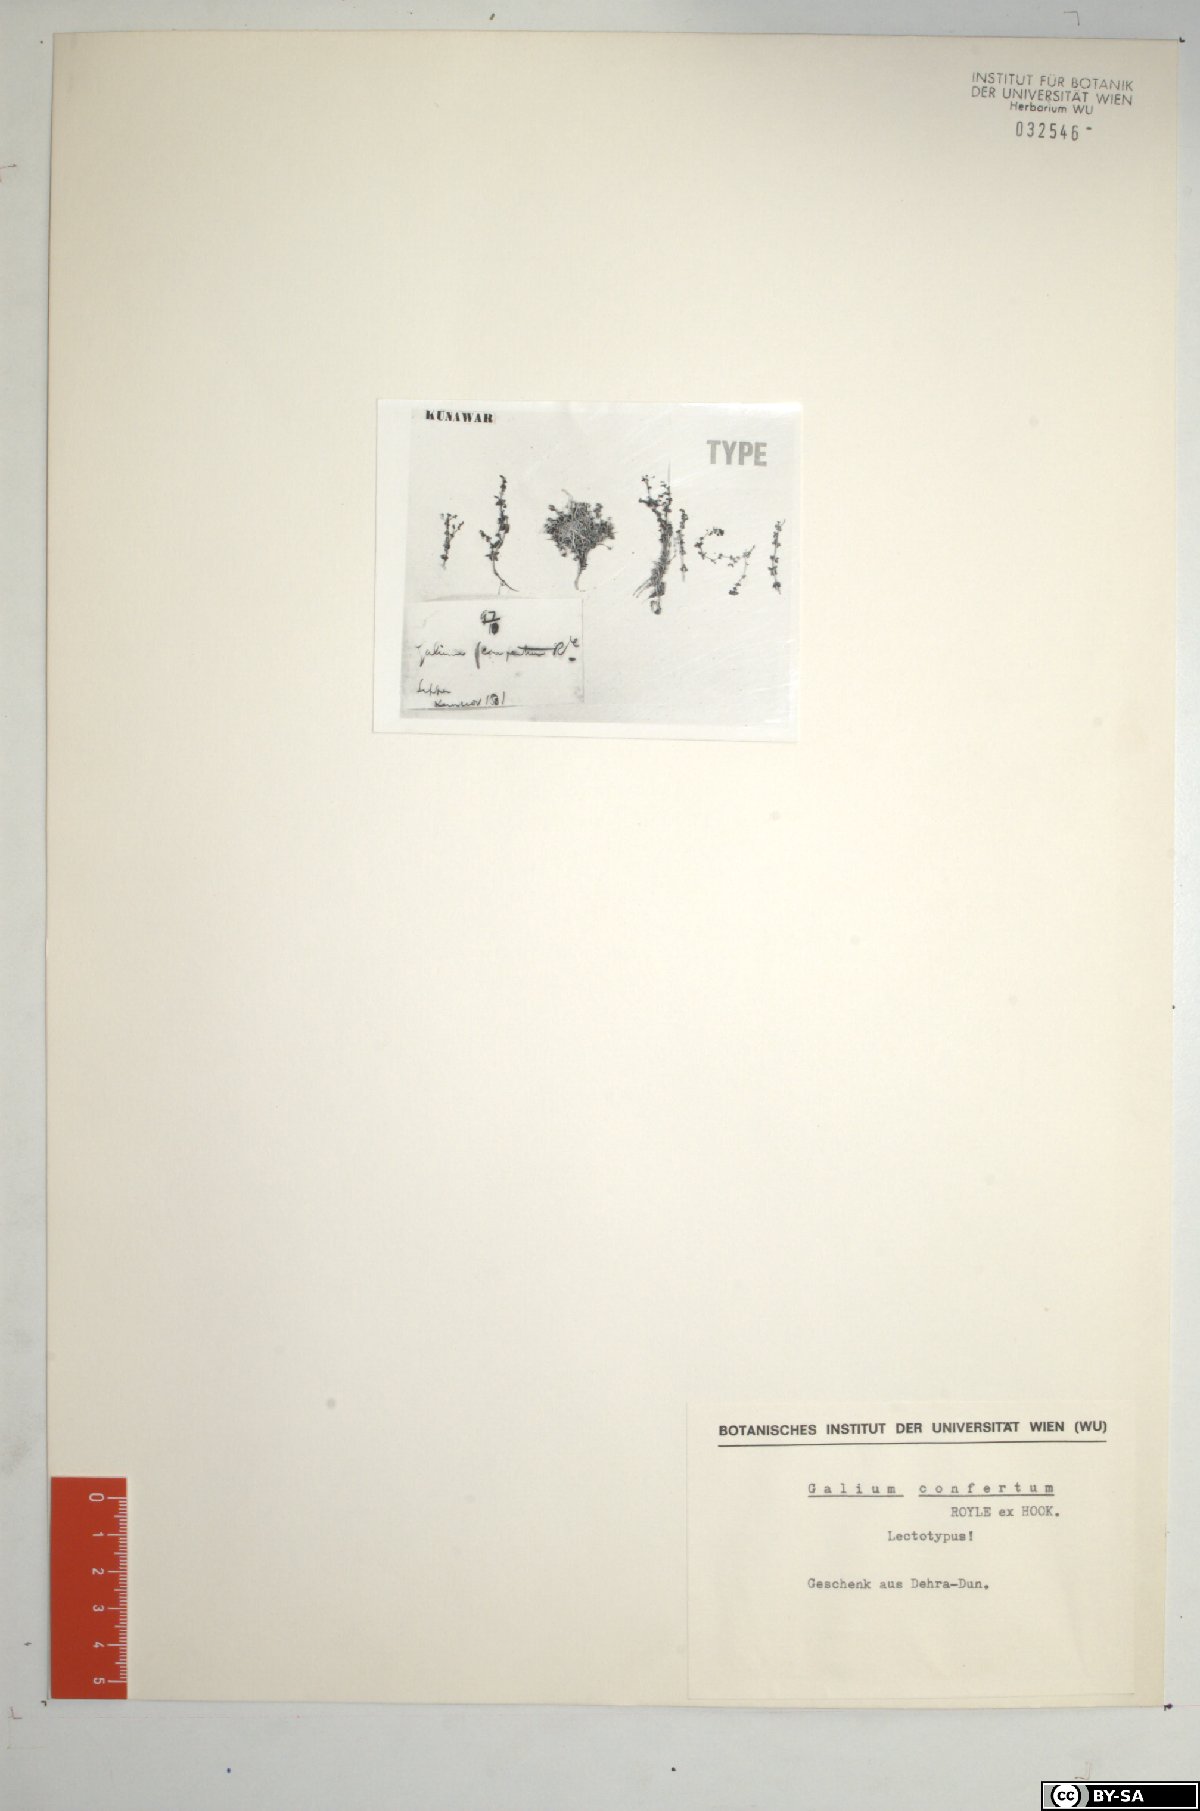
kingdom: Plantae
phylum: Tracheophyta
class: Magnoliopsida
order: Gentianales
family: Rubiaceae
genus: Galium
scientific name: Galium confertum
